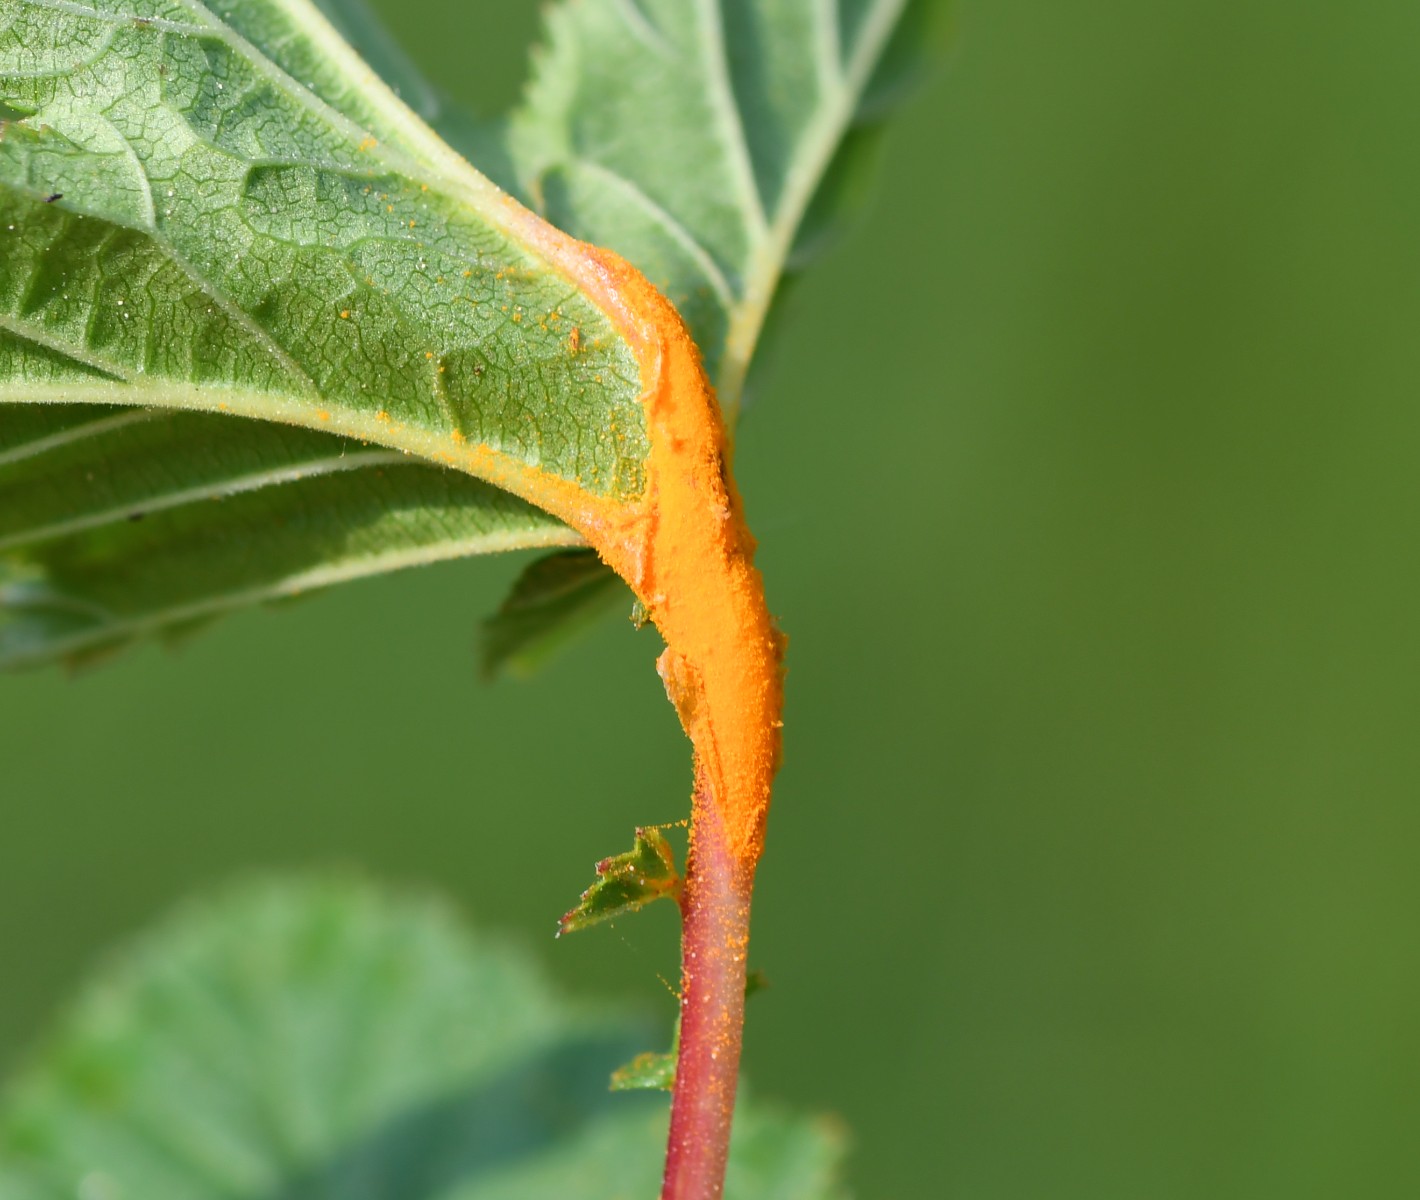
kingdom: Fungi
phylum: Basidiomycota
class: Pucciniomycetes
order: Pucciniales
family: Raveneliaceae
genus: Triphragmium
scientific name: Triphragmium ulmariae
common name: almindelig mjødurtrust
